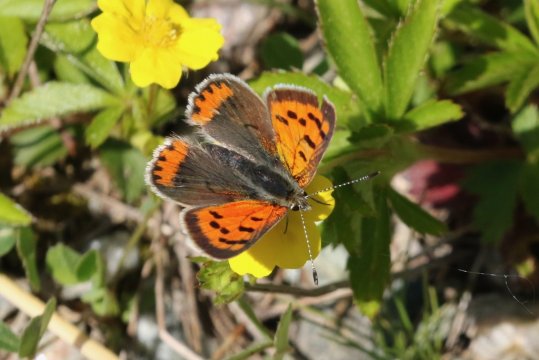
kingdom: Animalia
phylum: Arthropoda
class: Insecta
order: Lepidoptera
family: Lycaenidae
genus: Lycaena
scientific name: Lycaena phlaeas
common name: American Copper
